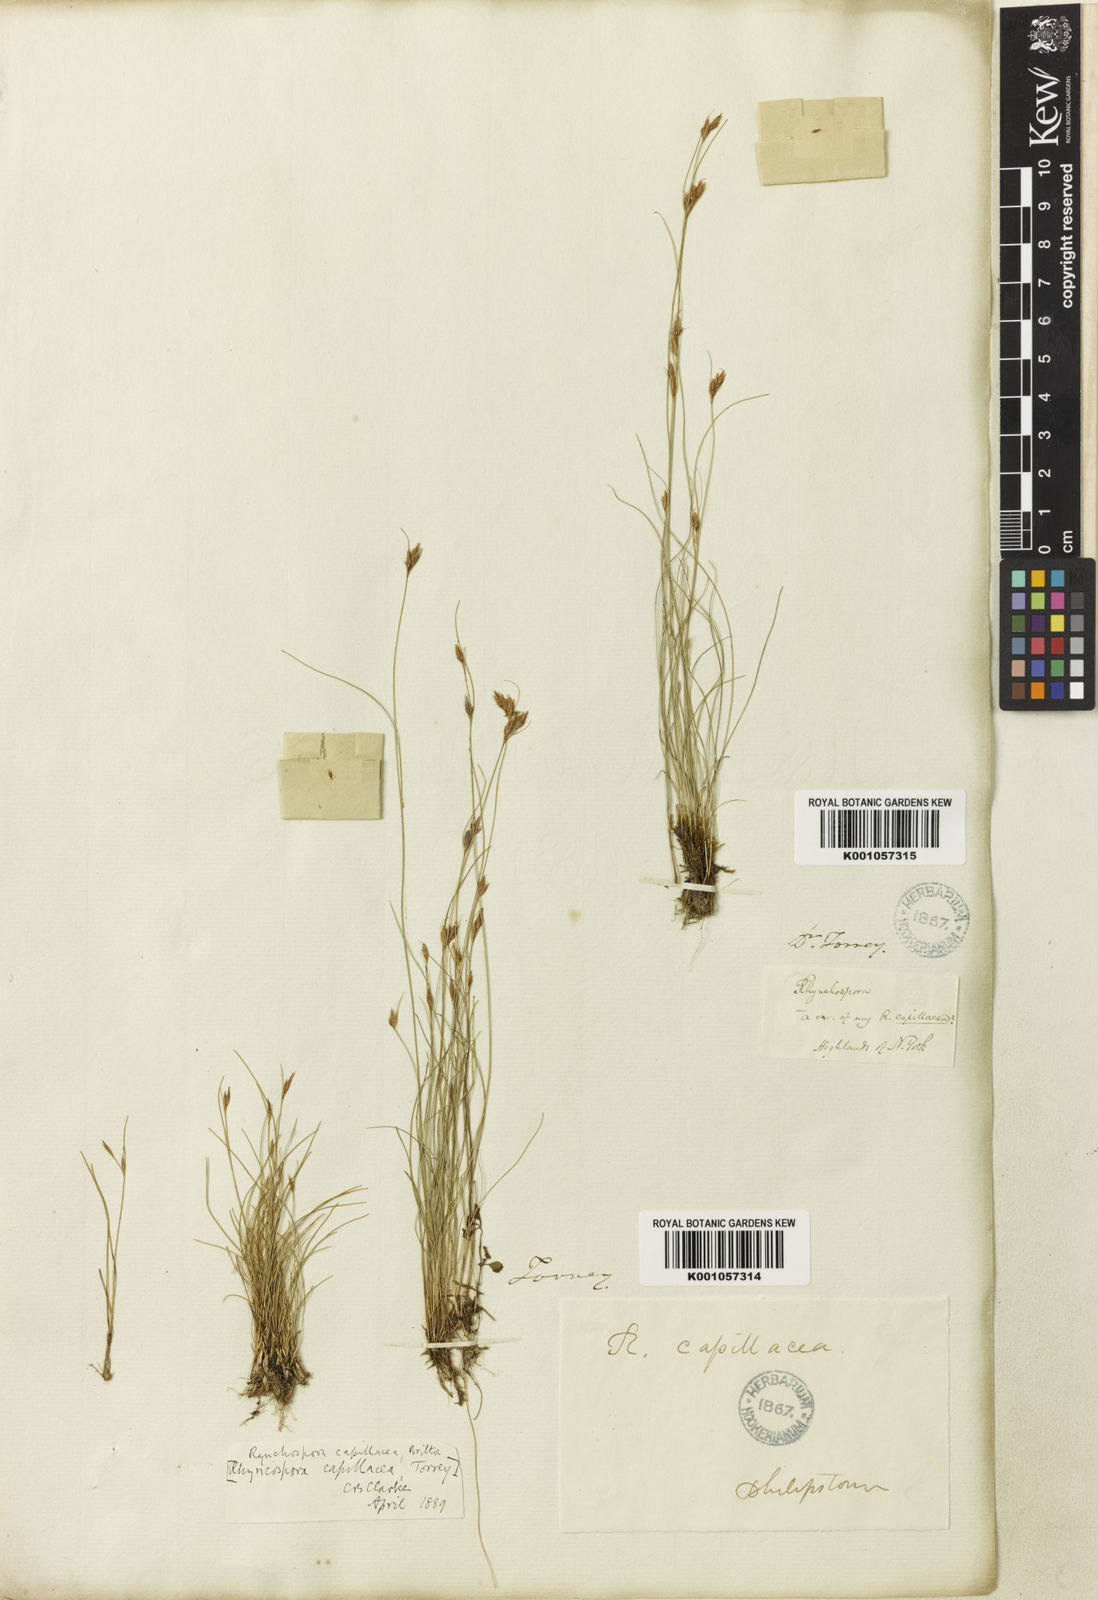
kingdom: Plantae
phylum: Tracheophyta
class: Liliopsida
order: Poales
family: Cyperaceae
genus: Rhynchospora
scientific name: Rhynchospora capillacea
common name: Capillary beakrush
